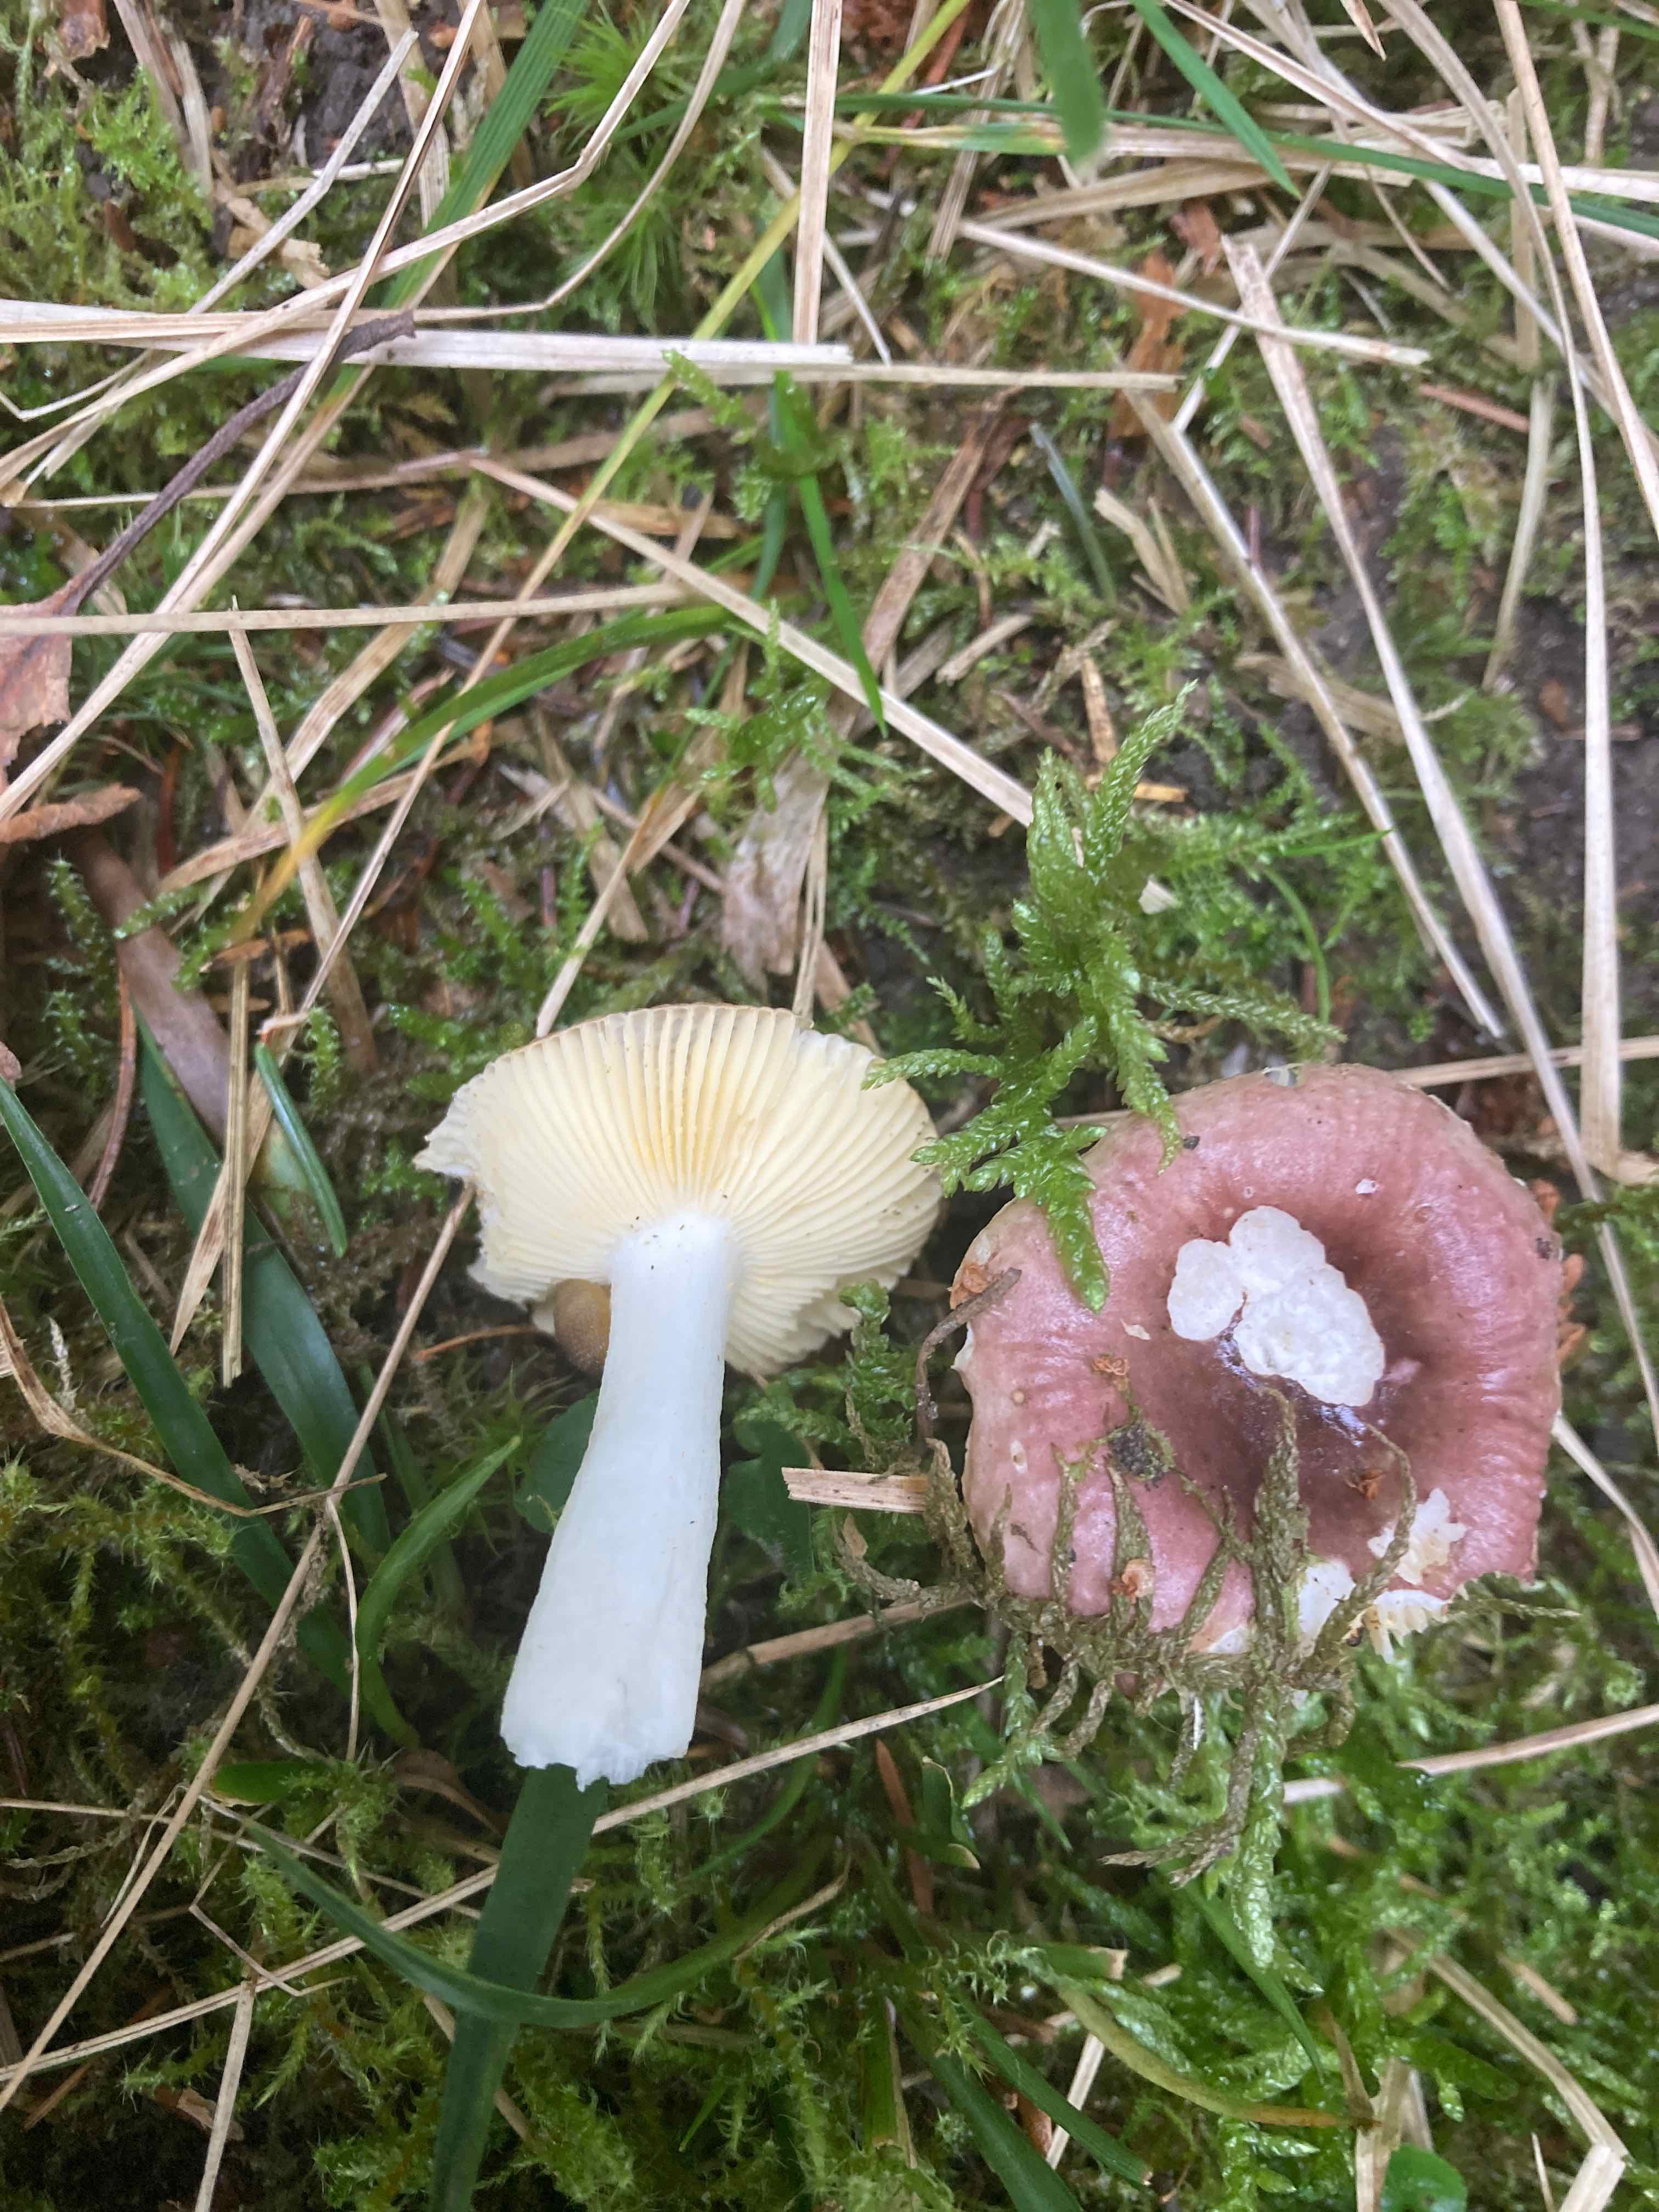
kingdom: Fungi
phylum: Basidiomycota
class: Agaricomycetes
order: Russulales
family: Russulaceae
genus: Russula
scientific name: Russula nauseosa
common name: spinkel skørhat
